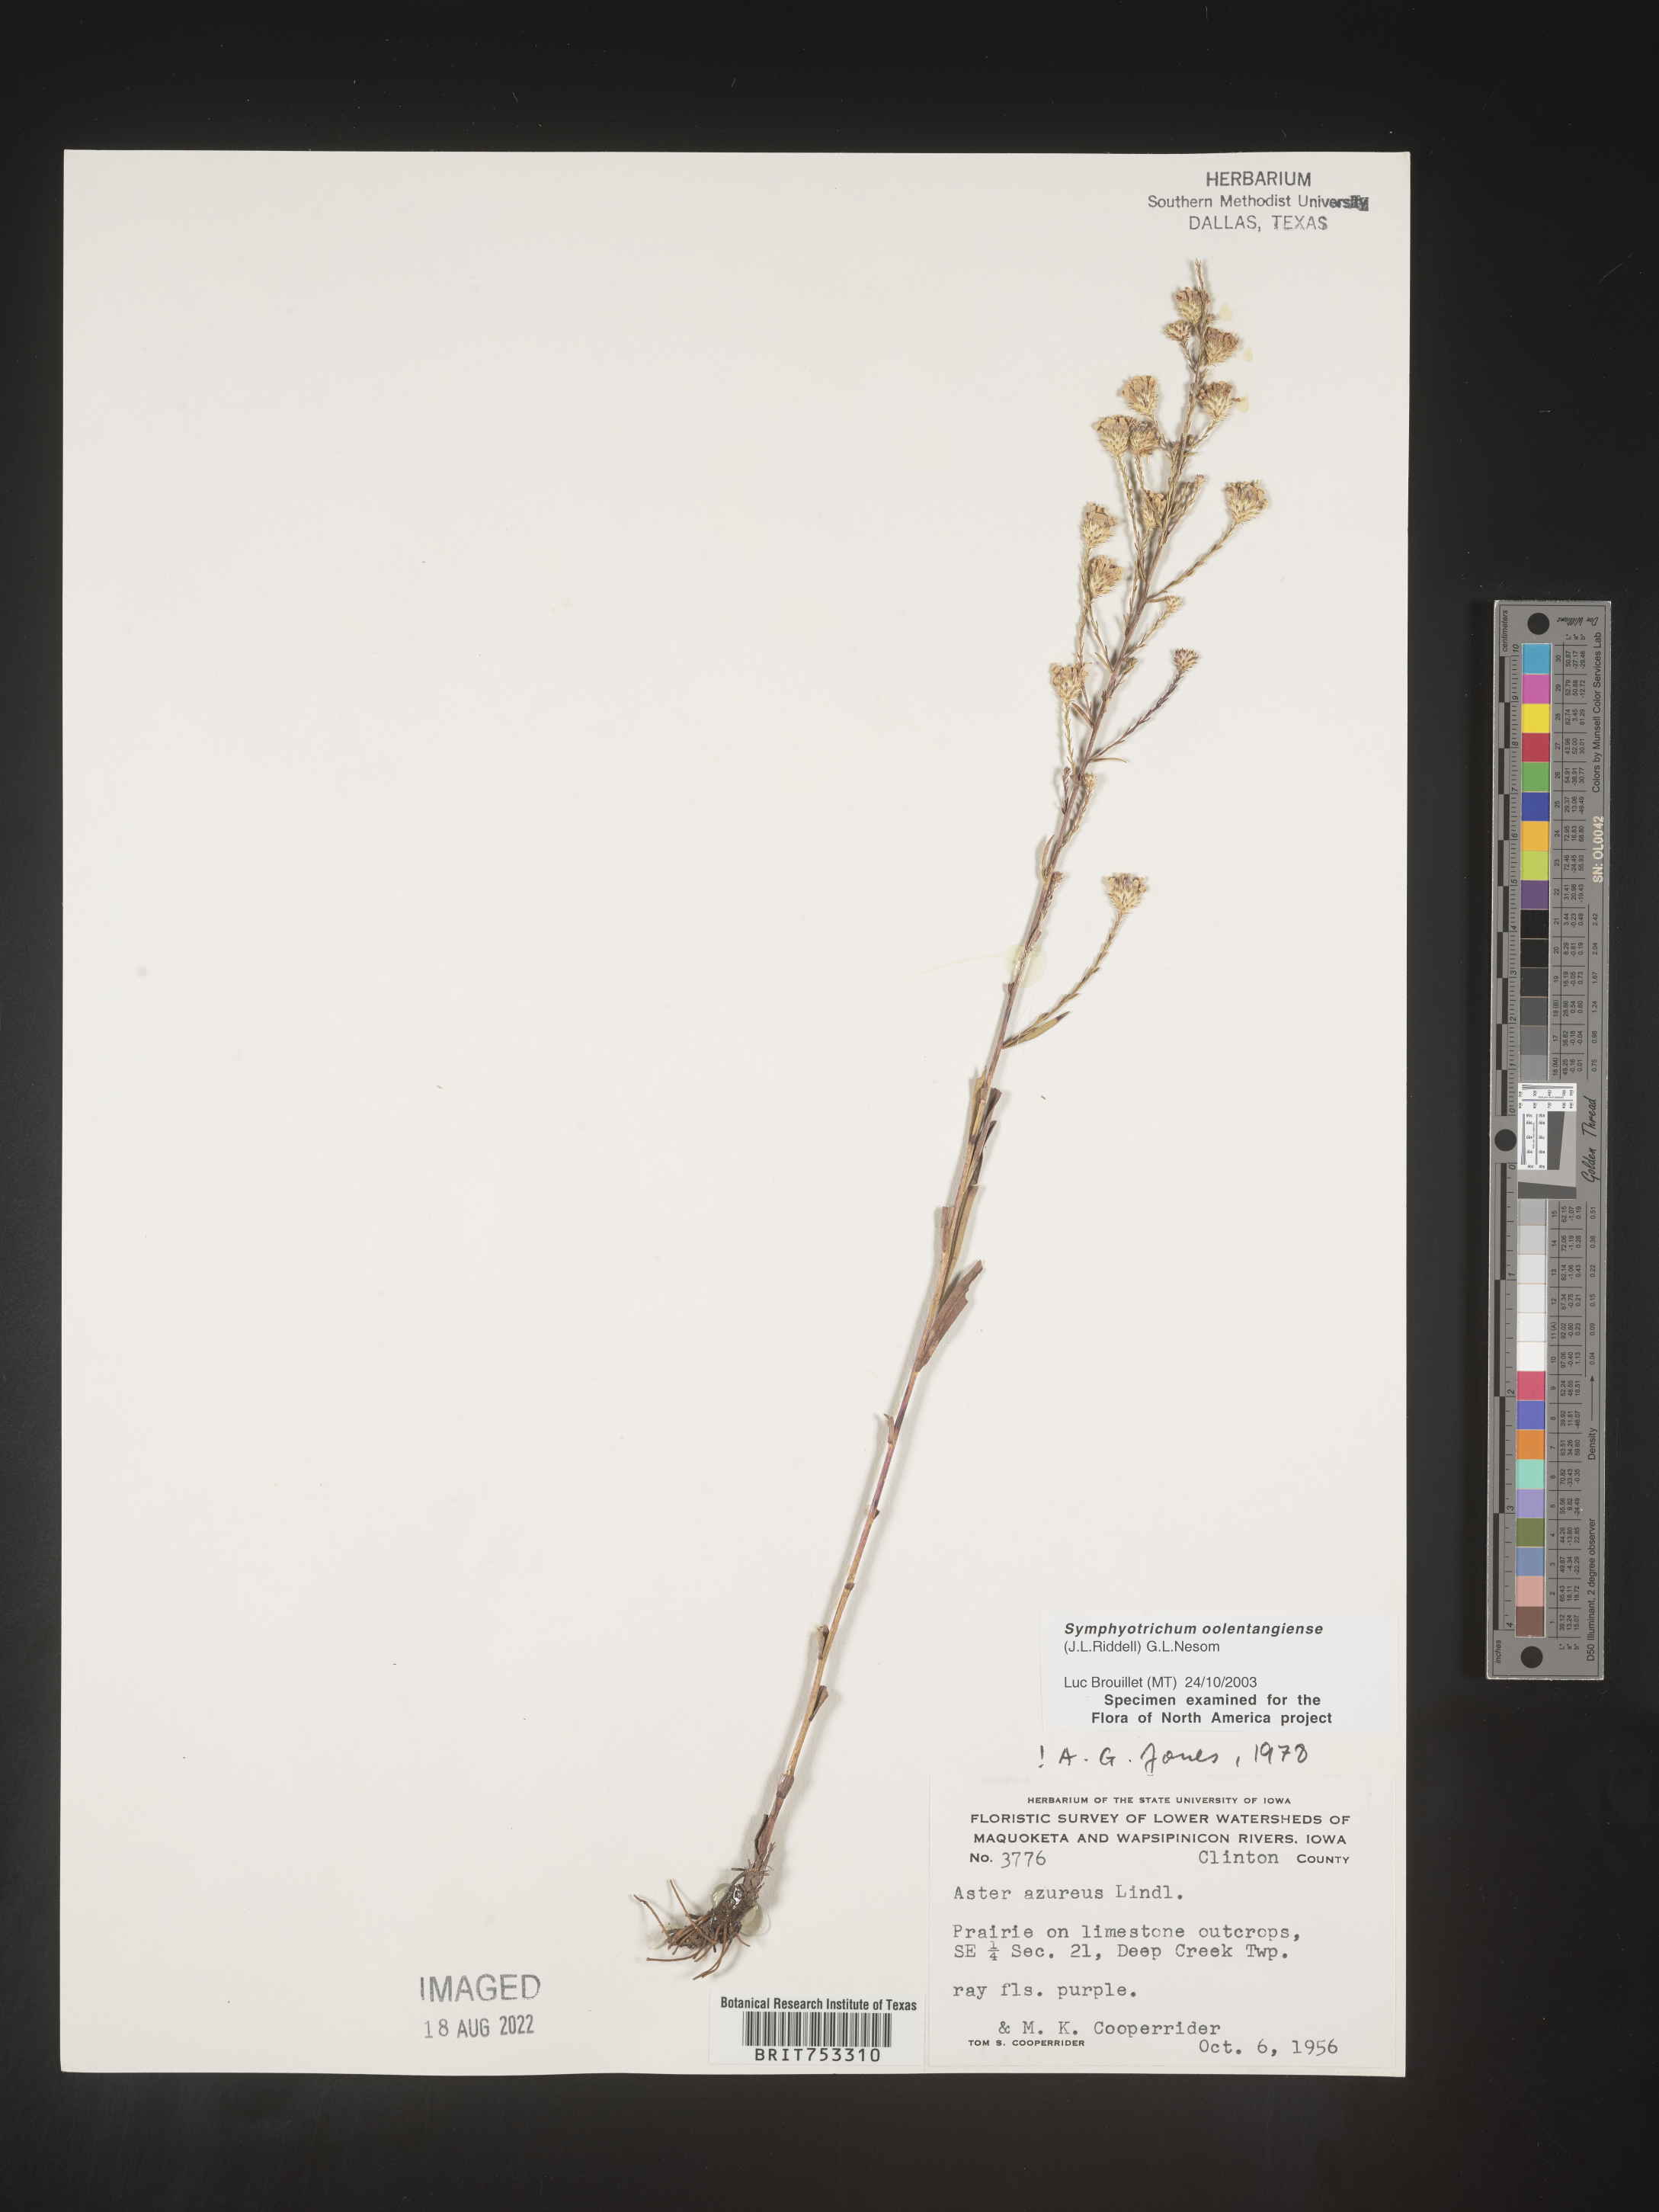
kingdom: Plantae
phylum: Tracheophyta
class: Magnoliopsida
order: Asterales
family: Asteraceae
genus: Symphyotrichum
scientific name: Symphyotrichum oolentangiense
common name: Azure aster
